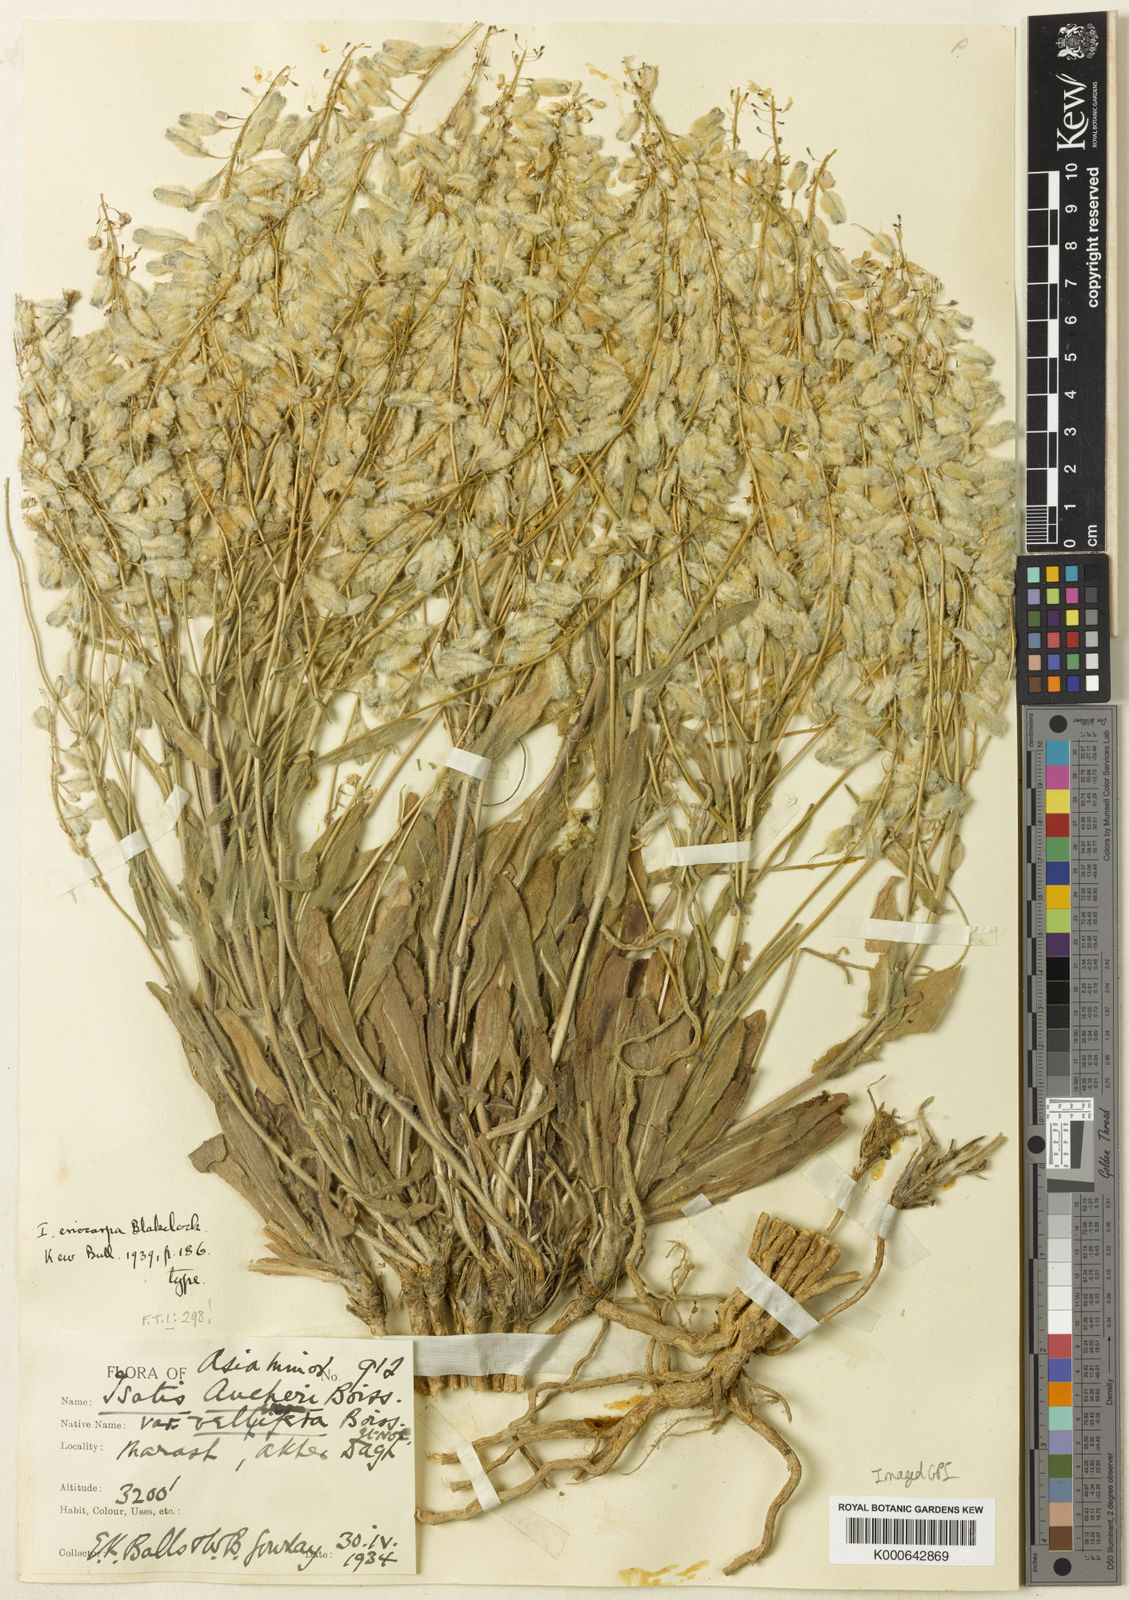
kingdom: Plantae
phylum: Tracheophyta
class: Magnoliopsida
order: Brassicales
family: Brassicaceae
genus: Isatis
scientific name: Isatis aucheri
